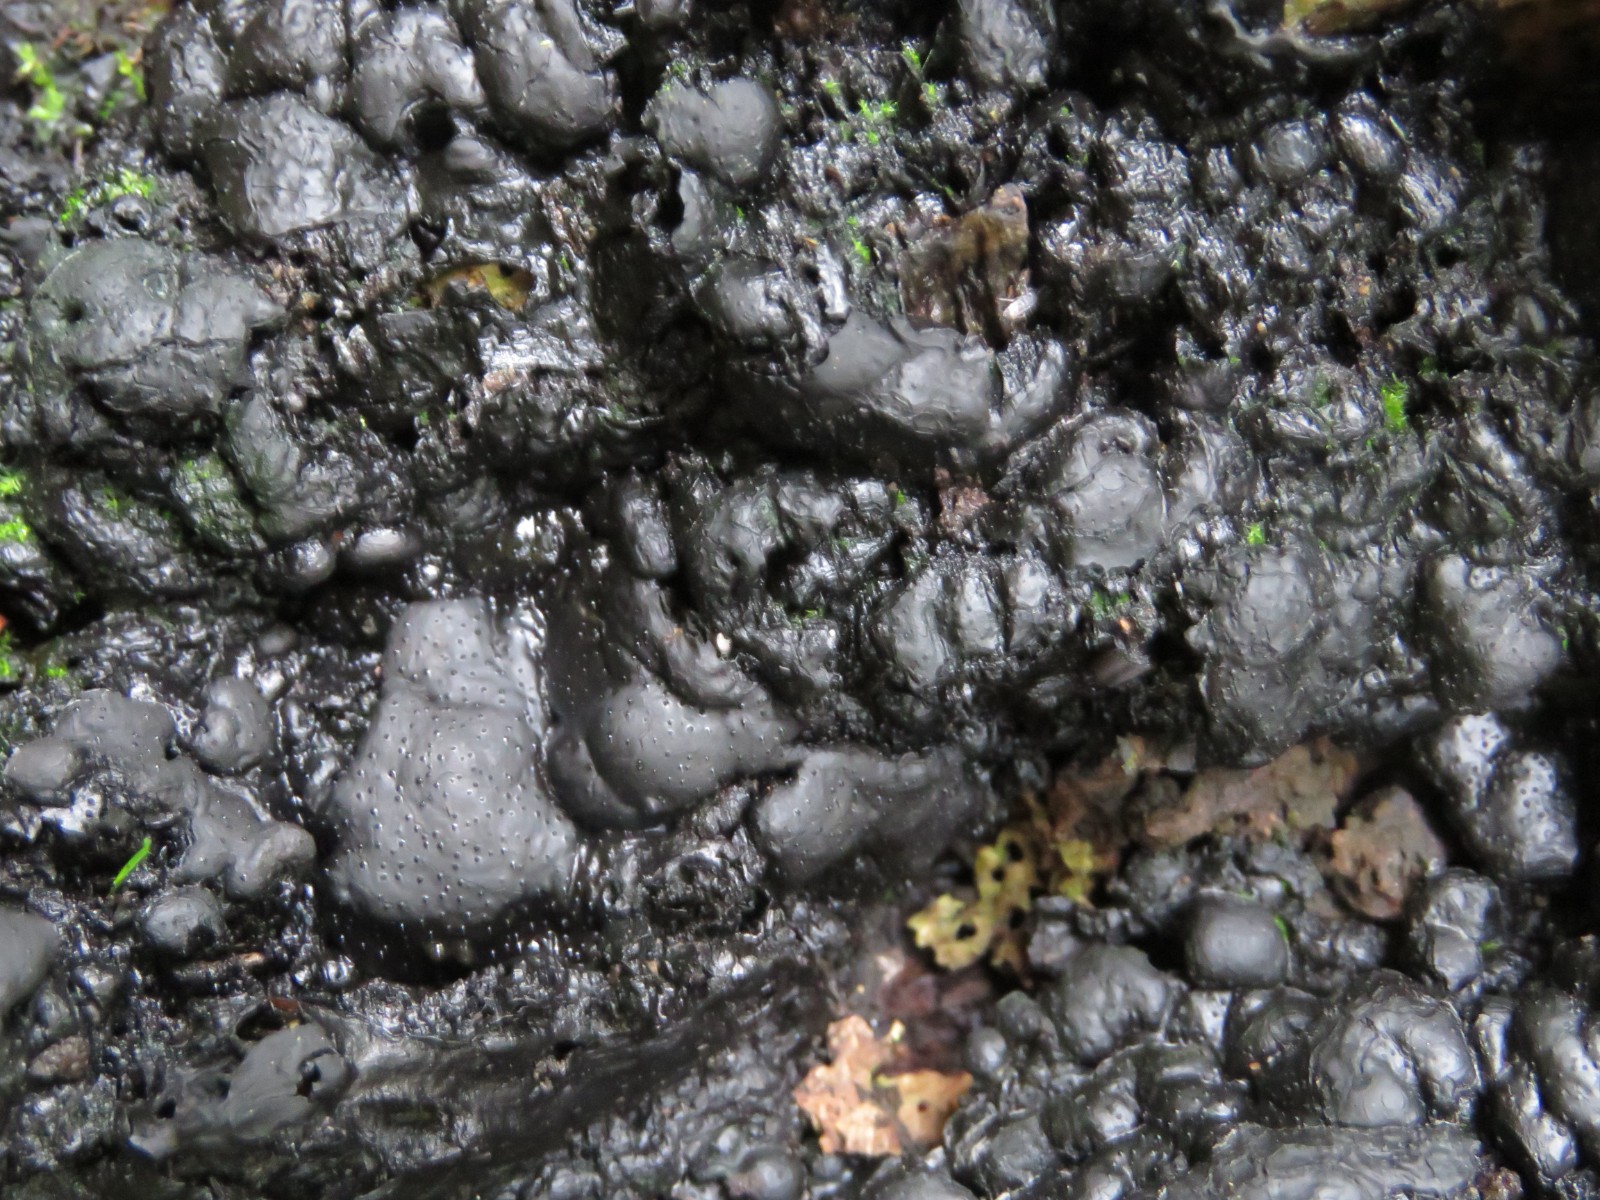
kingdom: Fungi
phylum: Ascomycota
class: Sordariomycetes
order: Xylariales
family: Xylariaceae
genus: Kretzschmaria
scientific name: Kretzschmaria deusta
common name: stor kulsvamp
